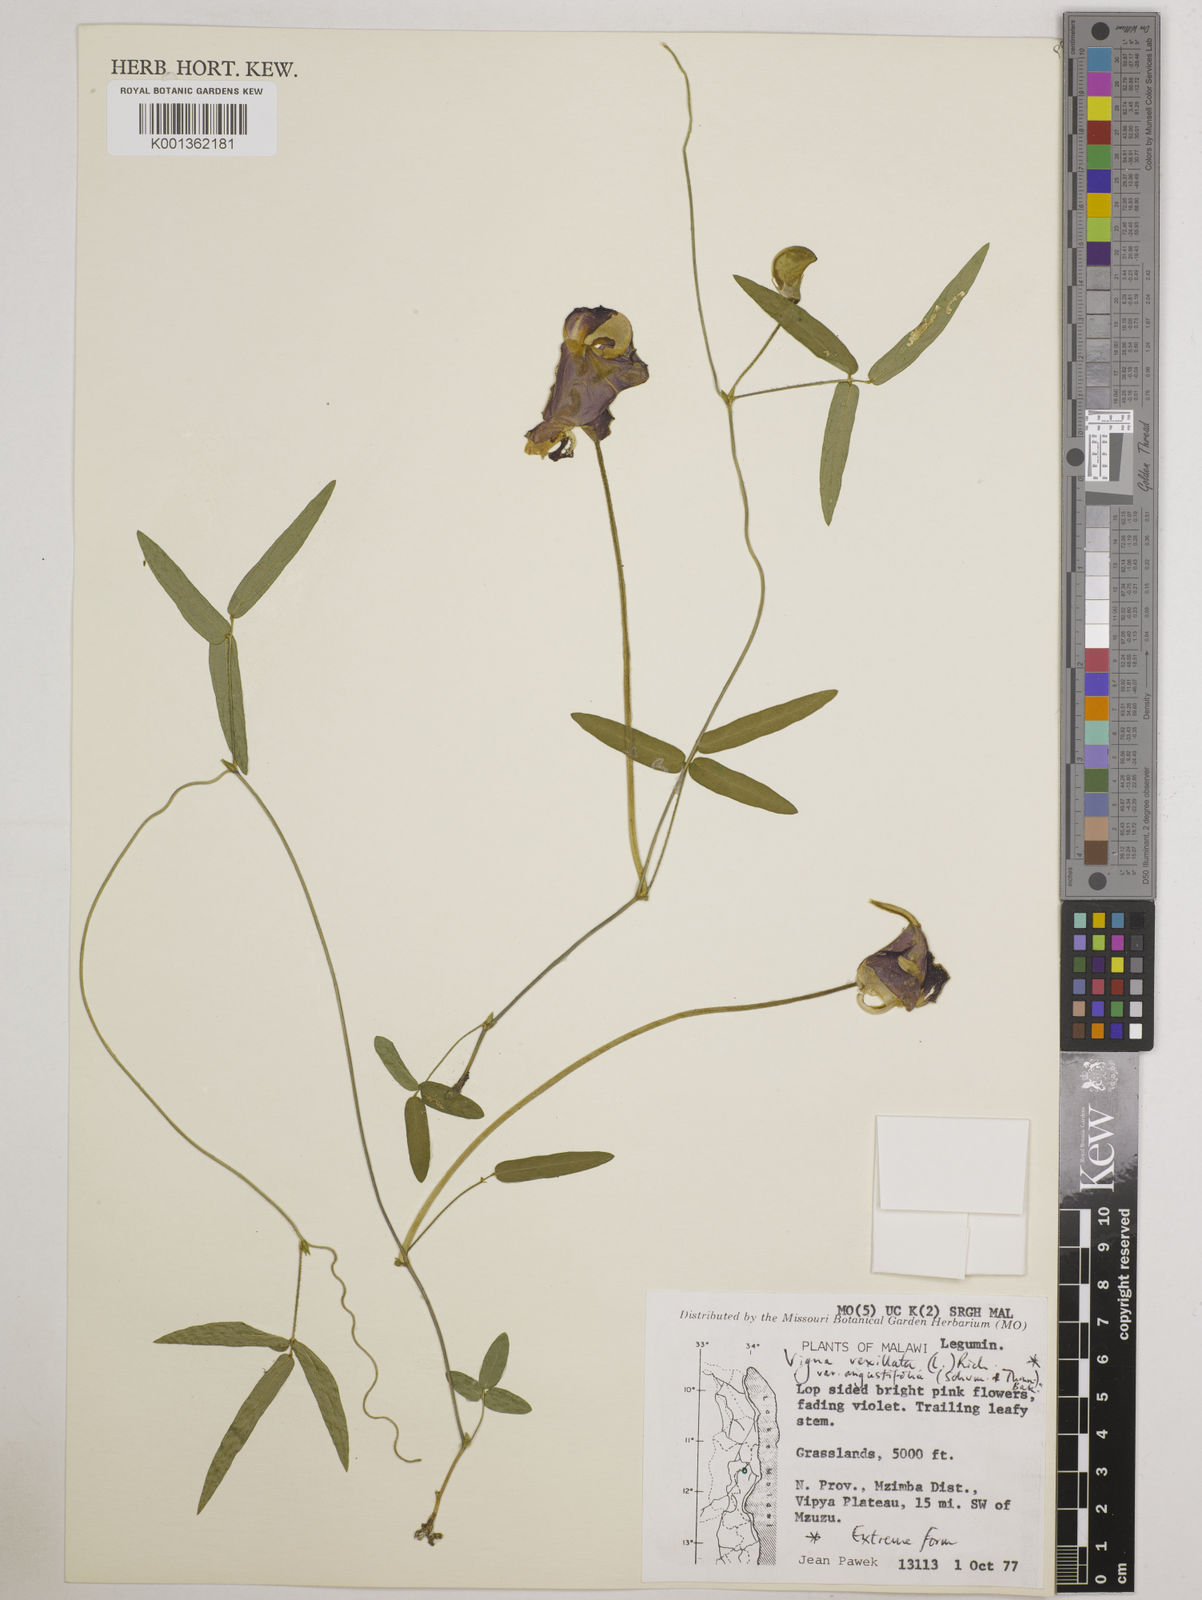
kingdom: Plantae
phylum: Tracheophyta
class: Magnoliopsida
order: Fabales
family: Fabaceae
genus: Vigna
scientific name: Vigna vexillata
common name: Zombi pea
